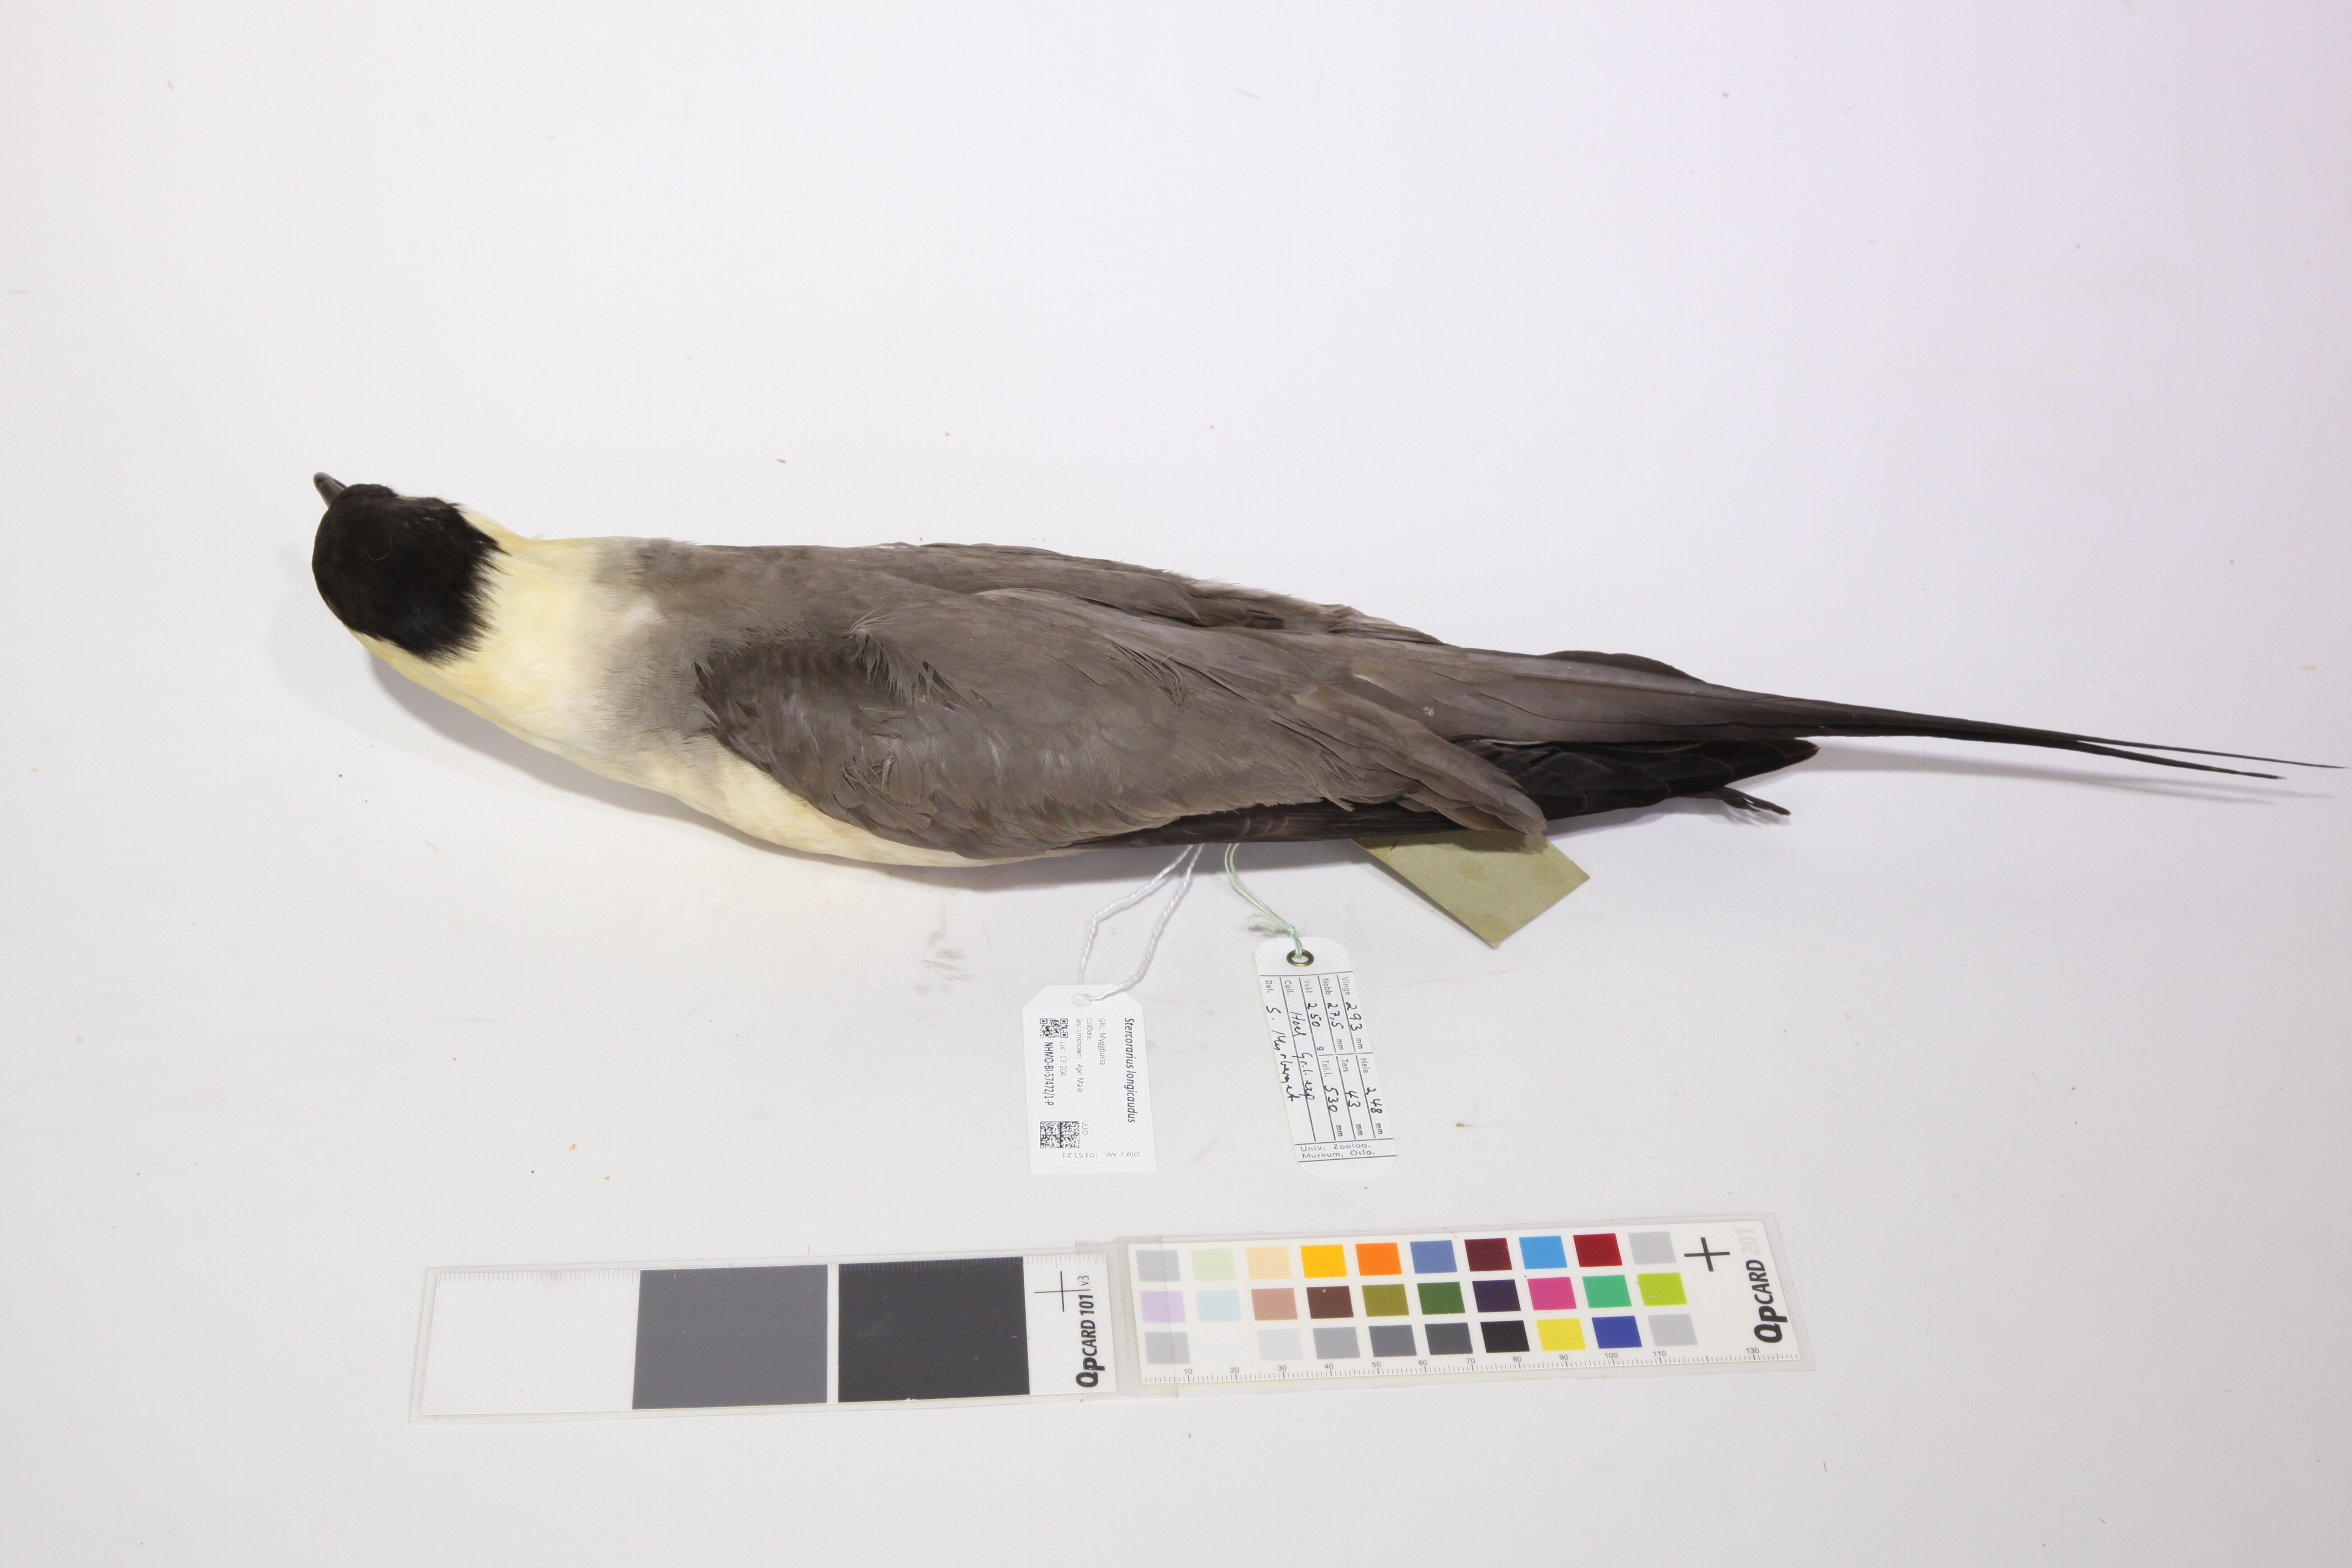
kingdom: Animalia
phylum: Chordata
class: Aves
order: Charadriiformes
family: Stercorariidae
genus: Stercorarius
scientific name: Stercorarius longicaudus
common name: Long-tailed jaeger
